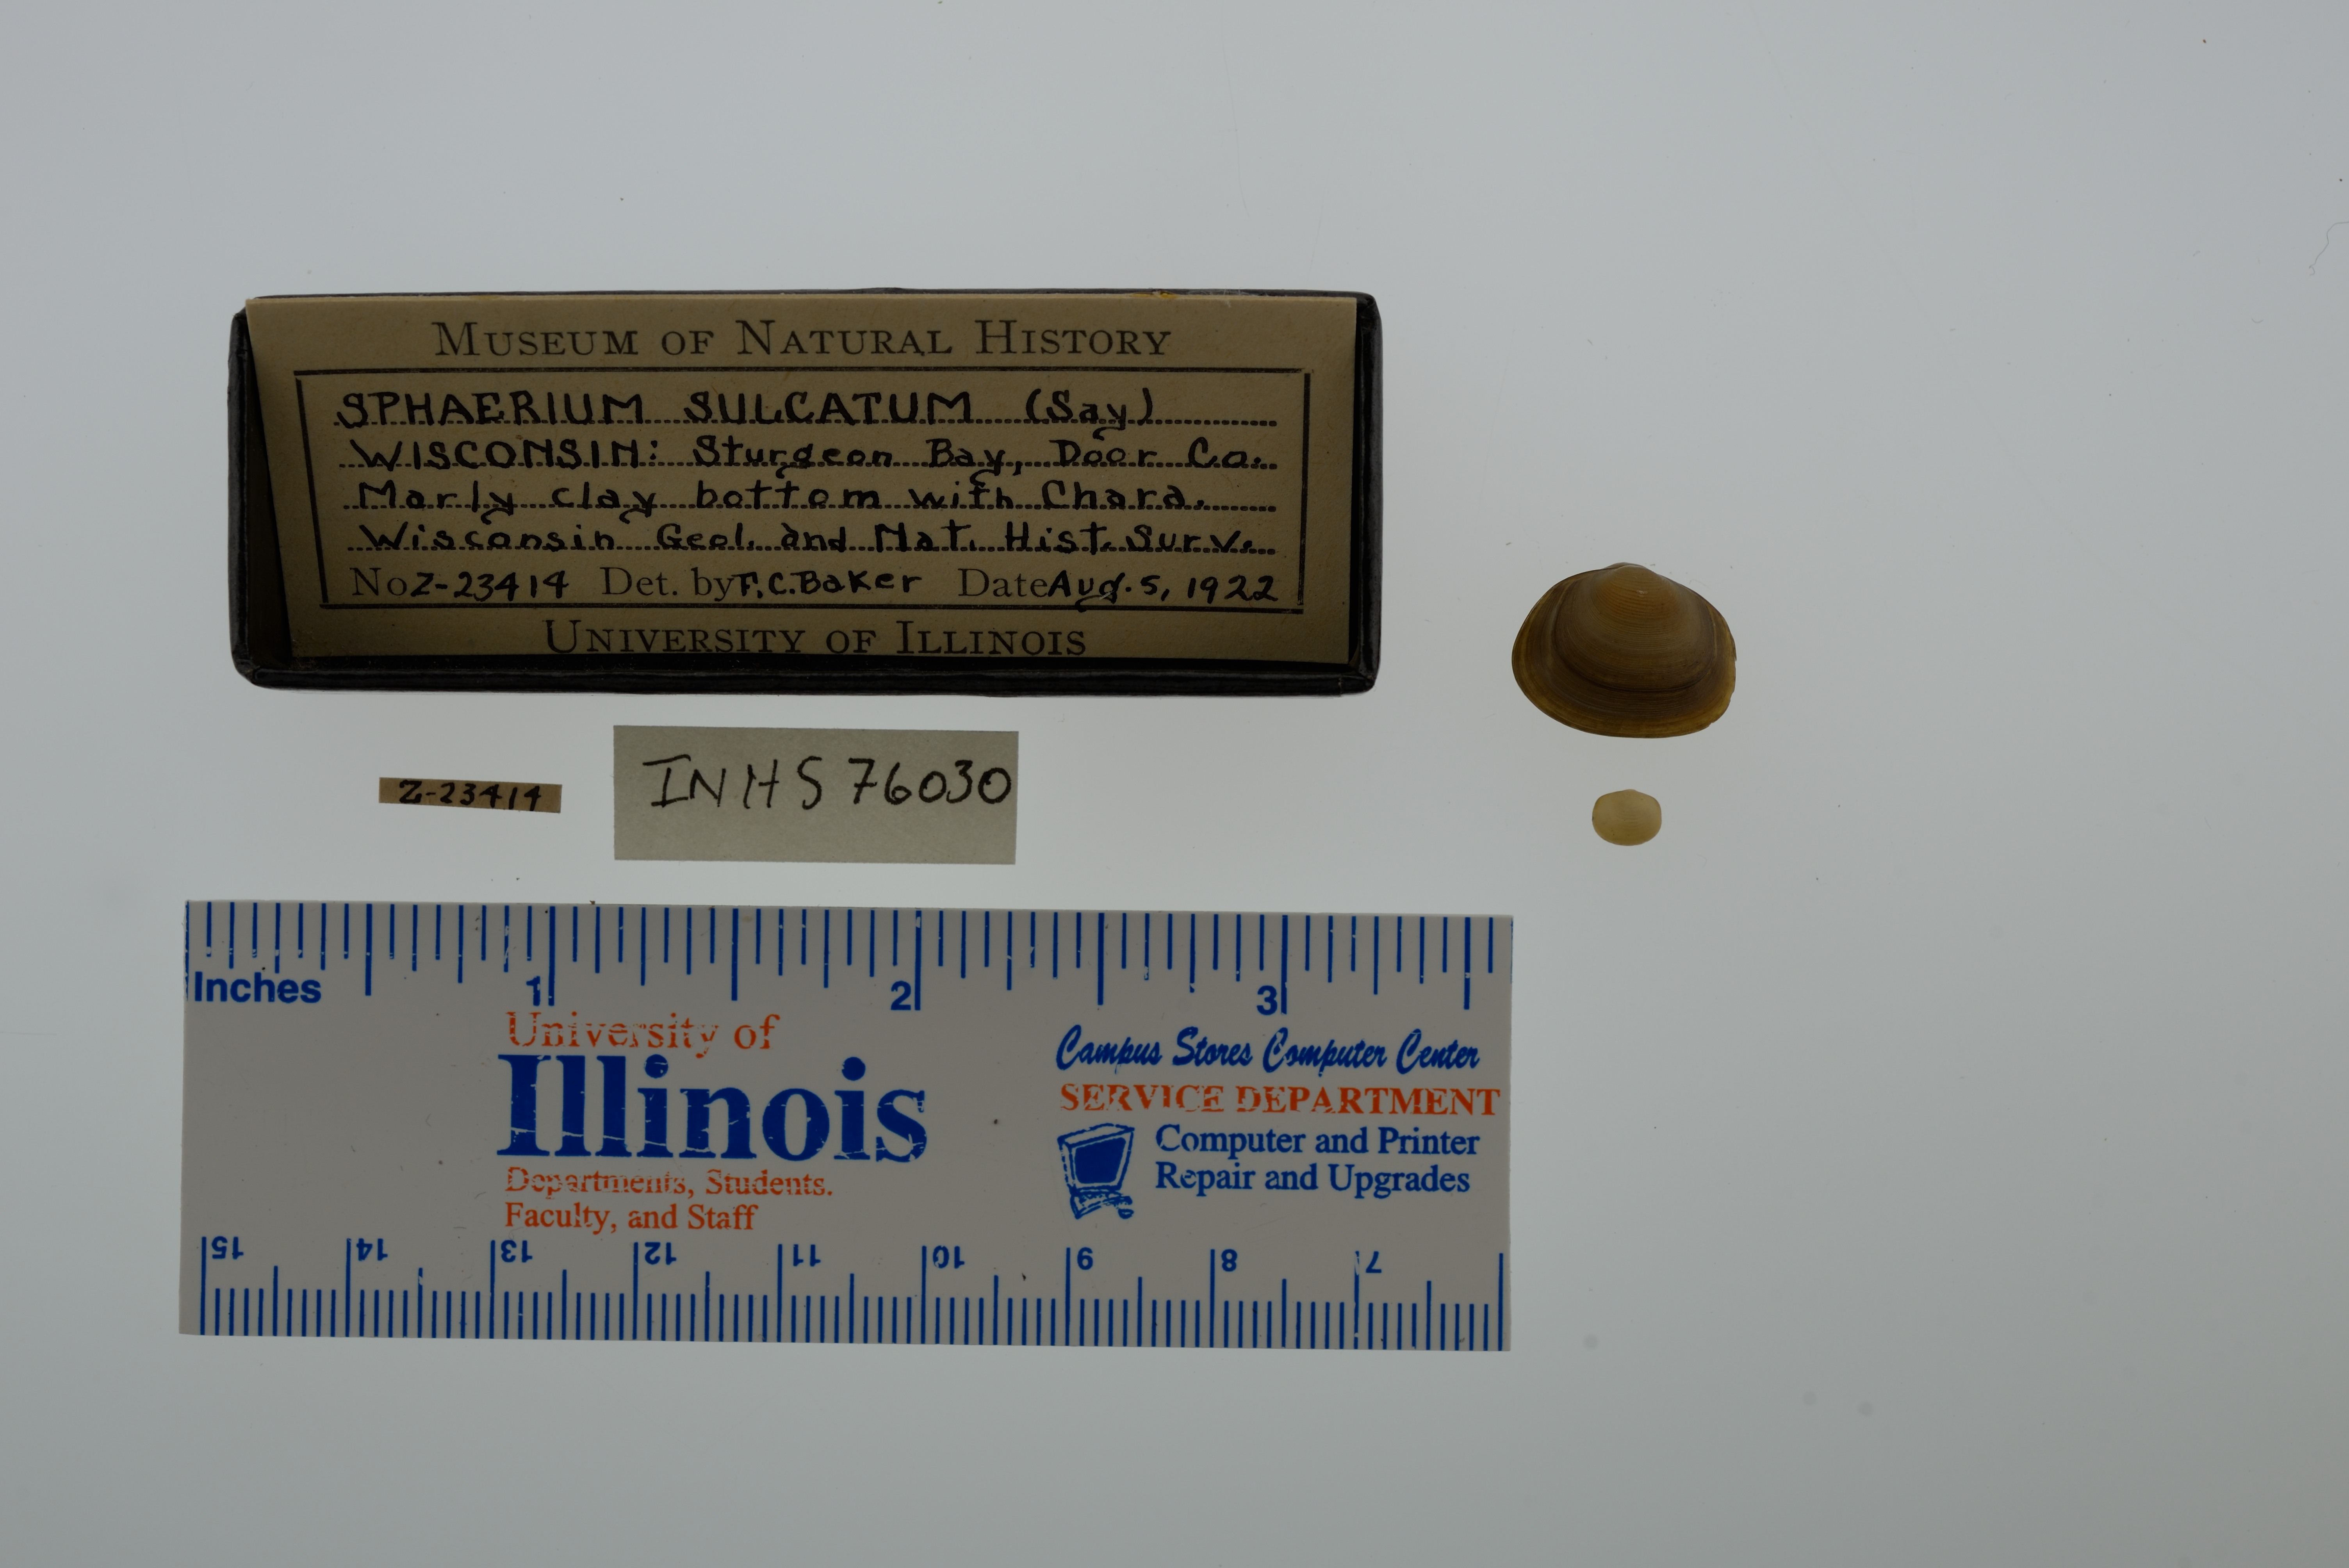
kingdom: Animalia
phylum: Mollusca
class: Bivalvia
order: Sphaeriida
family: Sphaeriidae
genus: Sphaerium
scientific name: Sphaerium simile
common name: Grooved fingernailclam
